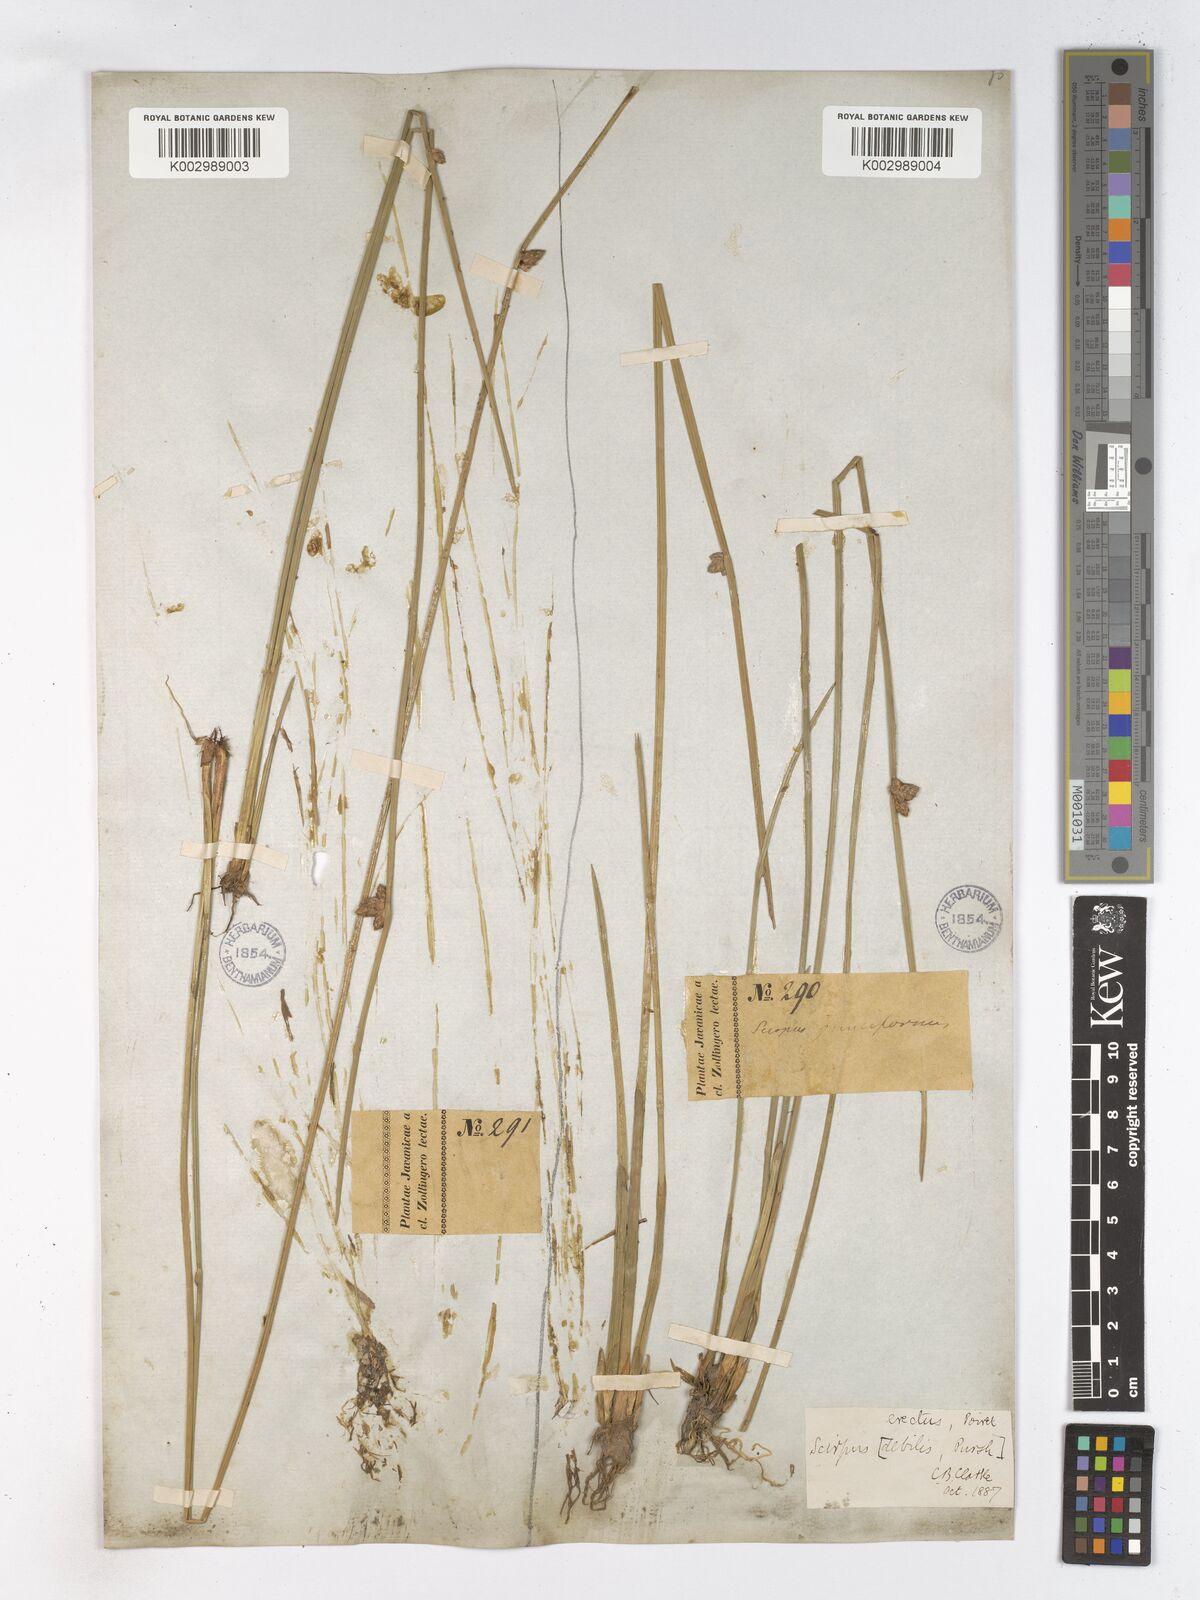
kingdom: Plantae
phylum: Tracheophyta
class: Liliopsida
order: Poales
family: Cyperaceae
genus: Schoenoplectiella
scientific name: Schoenoplectiella juncoides
